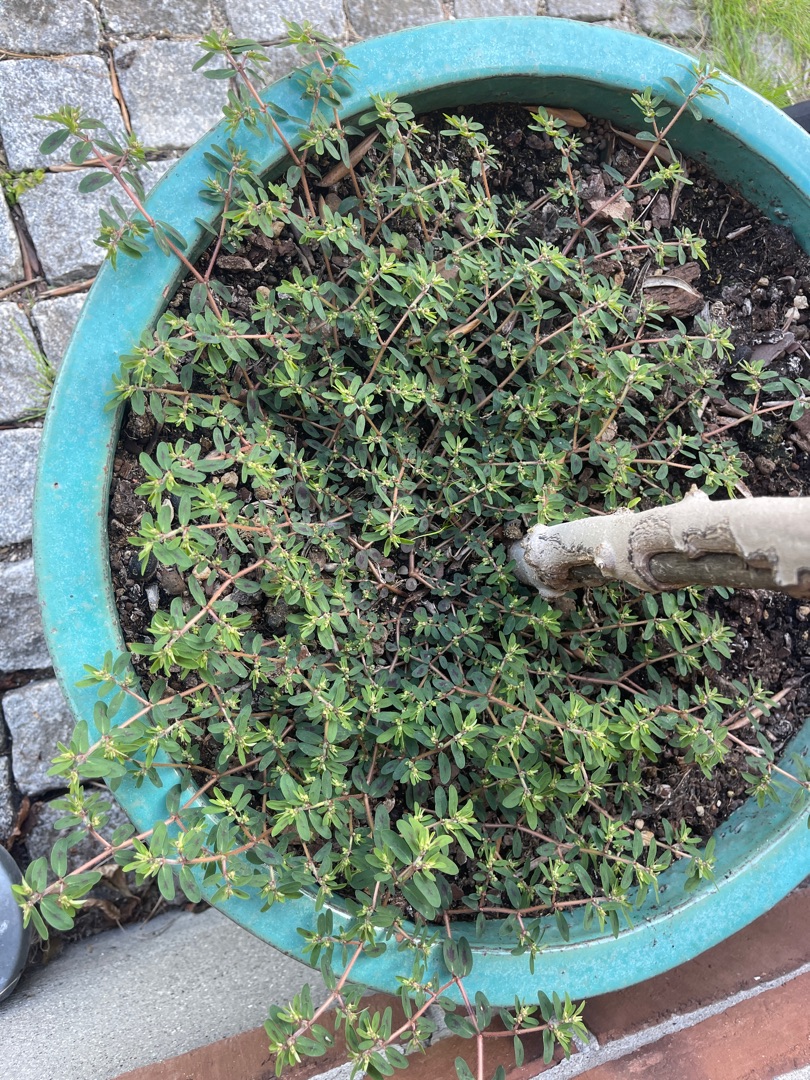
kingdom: Plantae
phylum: Tracheophyta
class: Magnoliopsida
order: Malpighiales
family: Euphorbiaceae
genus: Euphorbia
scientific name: Euphorbia maculata
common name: Plet-vortemælk
